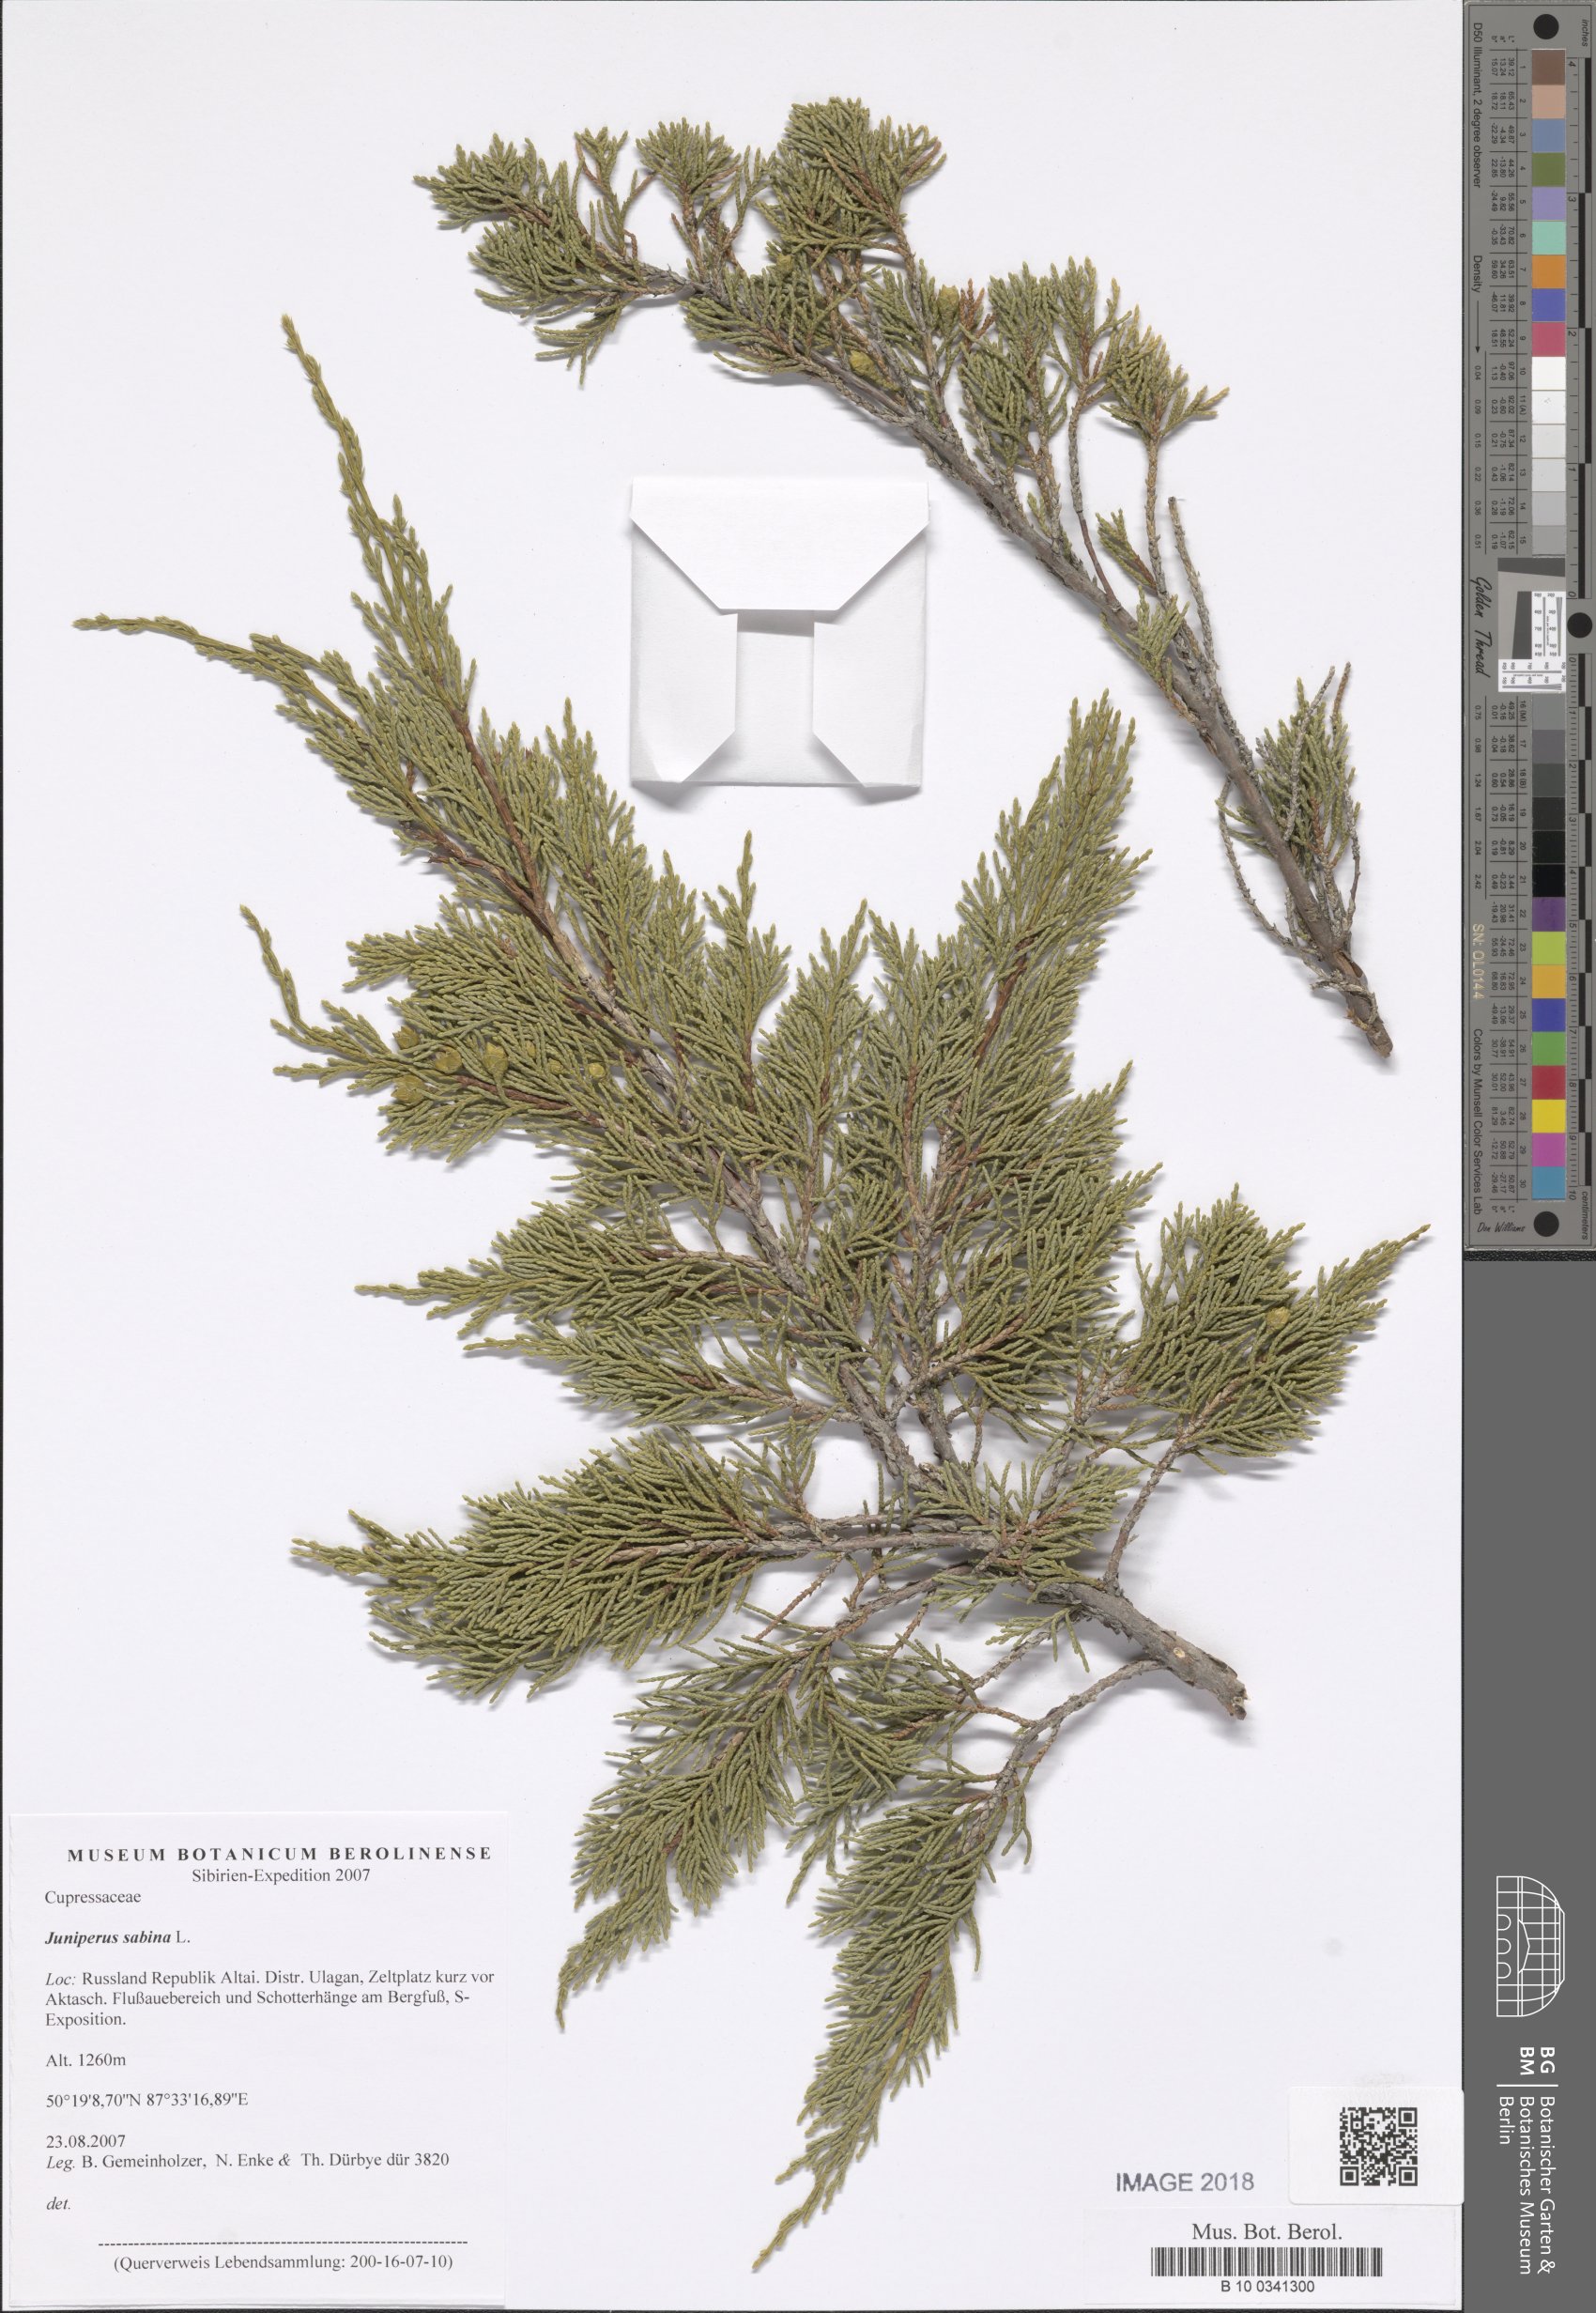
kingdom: Plantae
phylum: Tracheophyta
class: Pinopsida
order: Pinales
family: Cupressaceae
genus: Juniperus
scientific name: Juniperus sabina
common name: Savin
